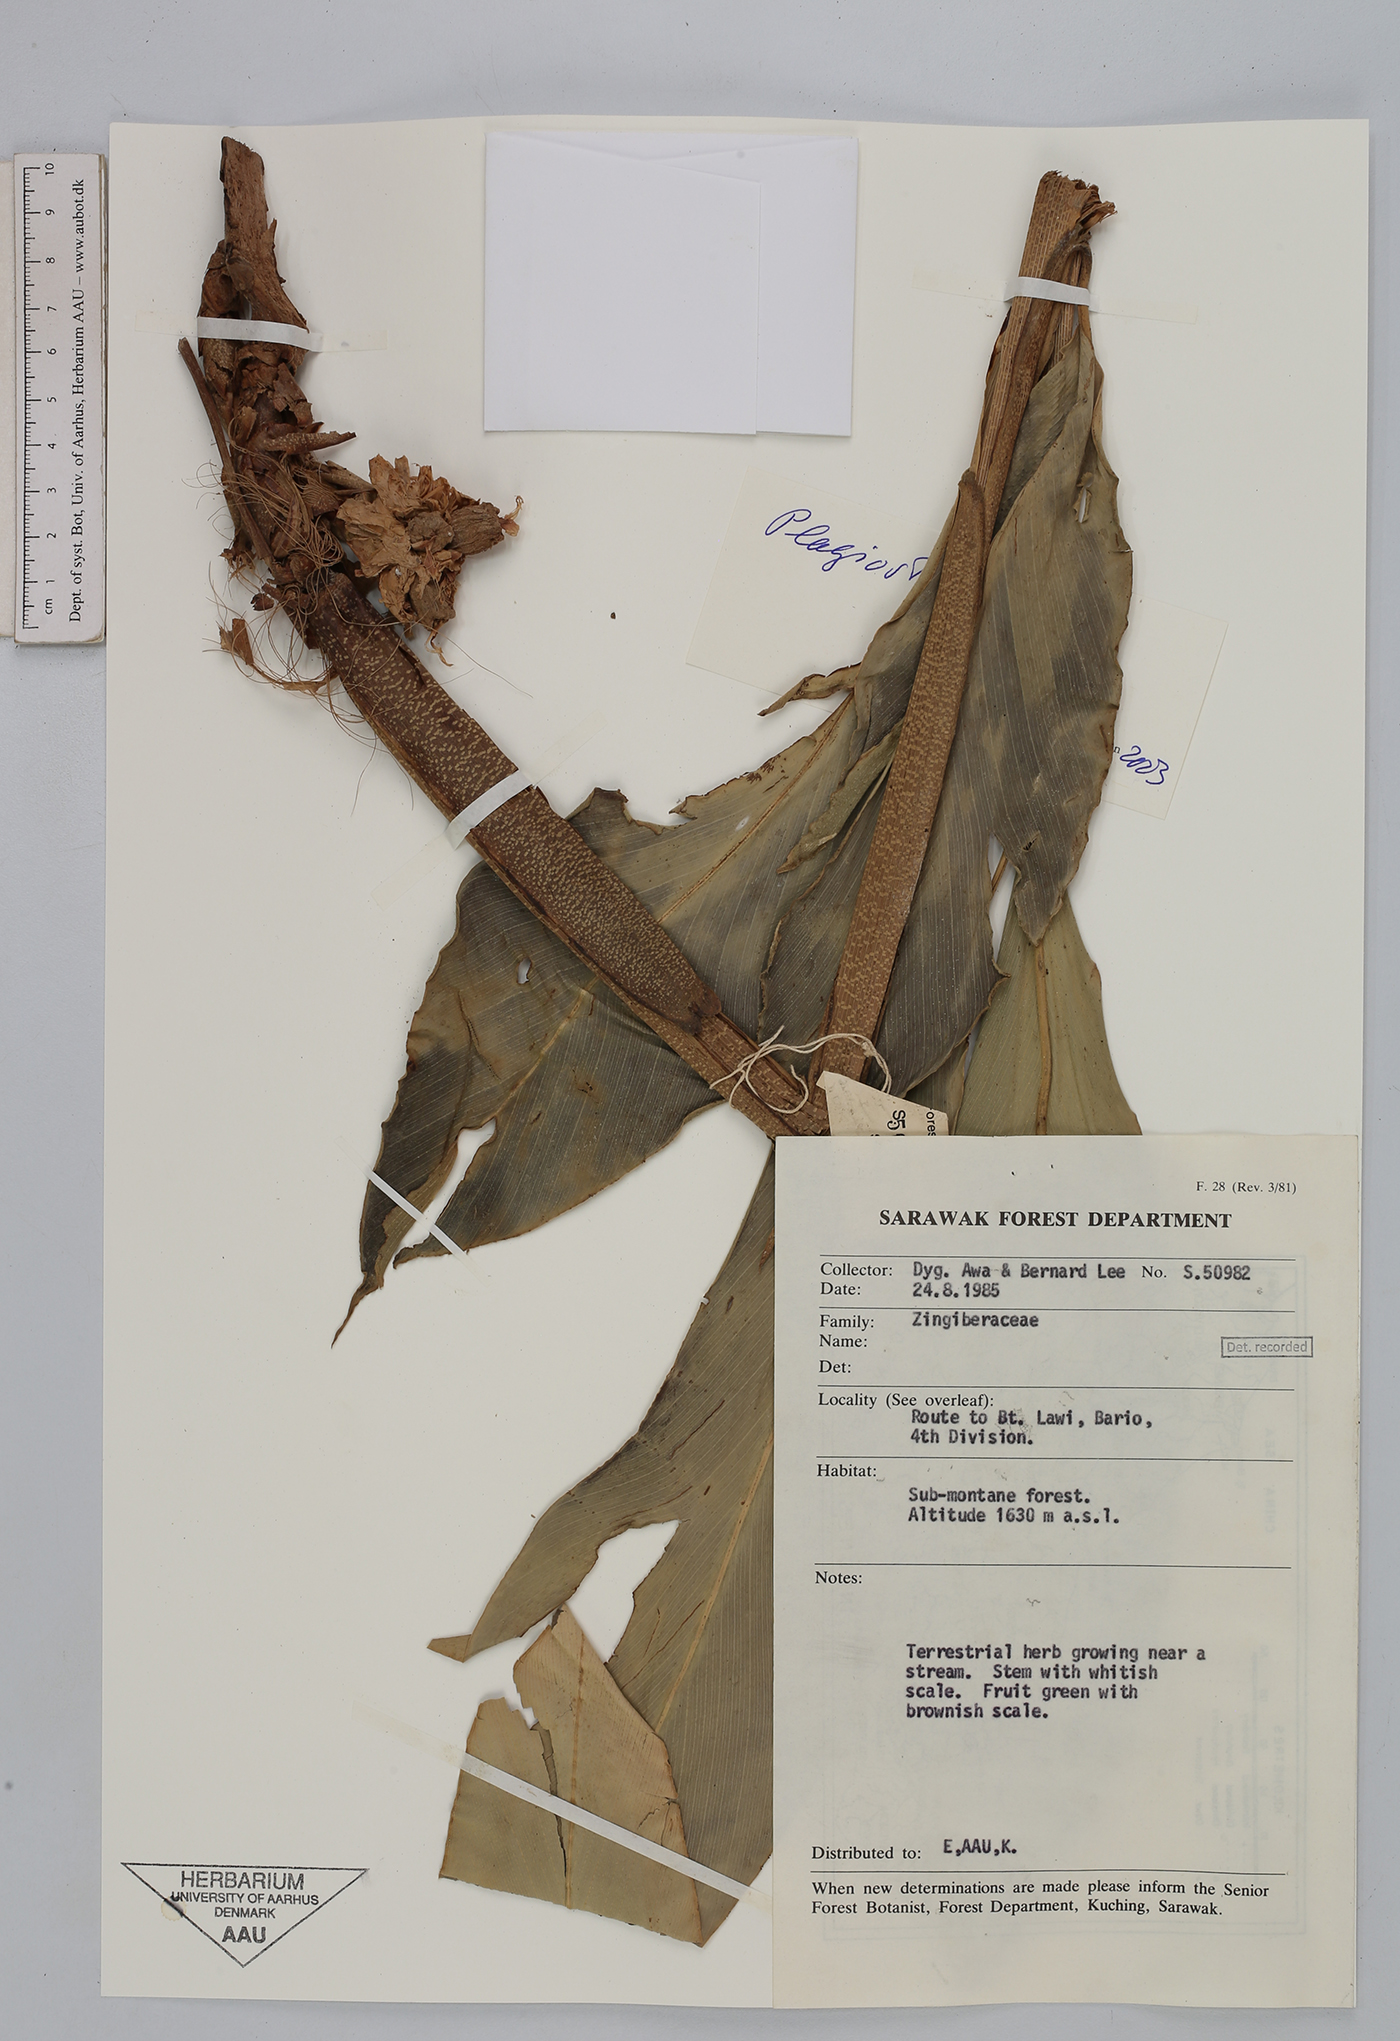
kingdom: Plantae
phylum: Tracheophyta
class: Liliopsida
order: Zingiberales
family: Zingiberaceae
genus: Plagiostachys
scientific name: Plagiostachys
